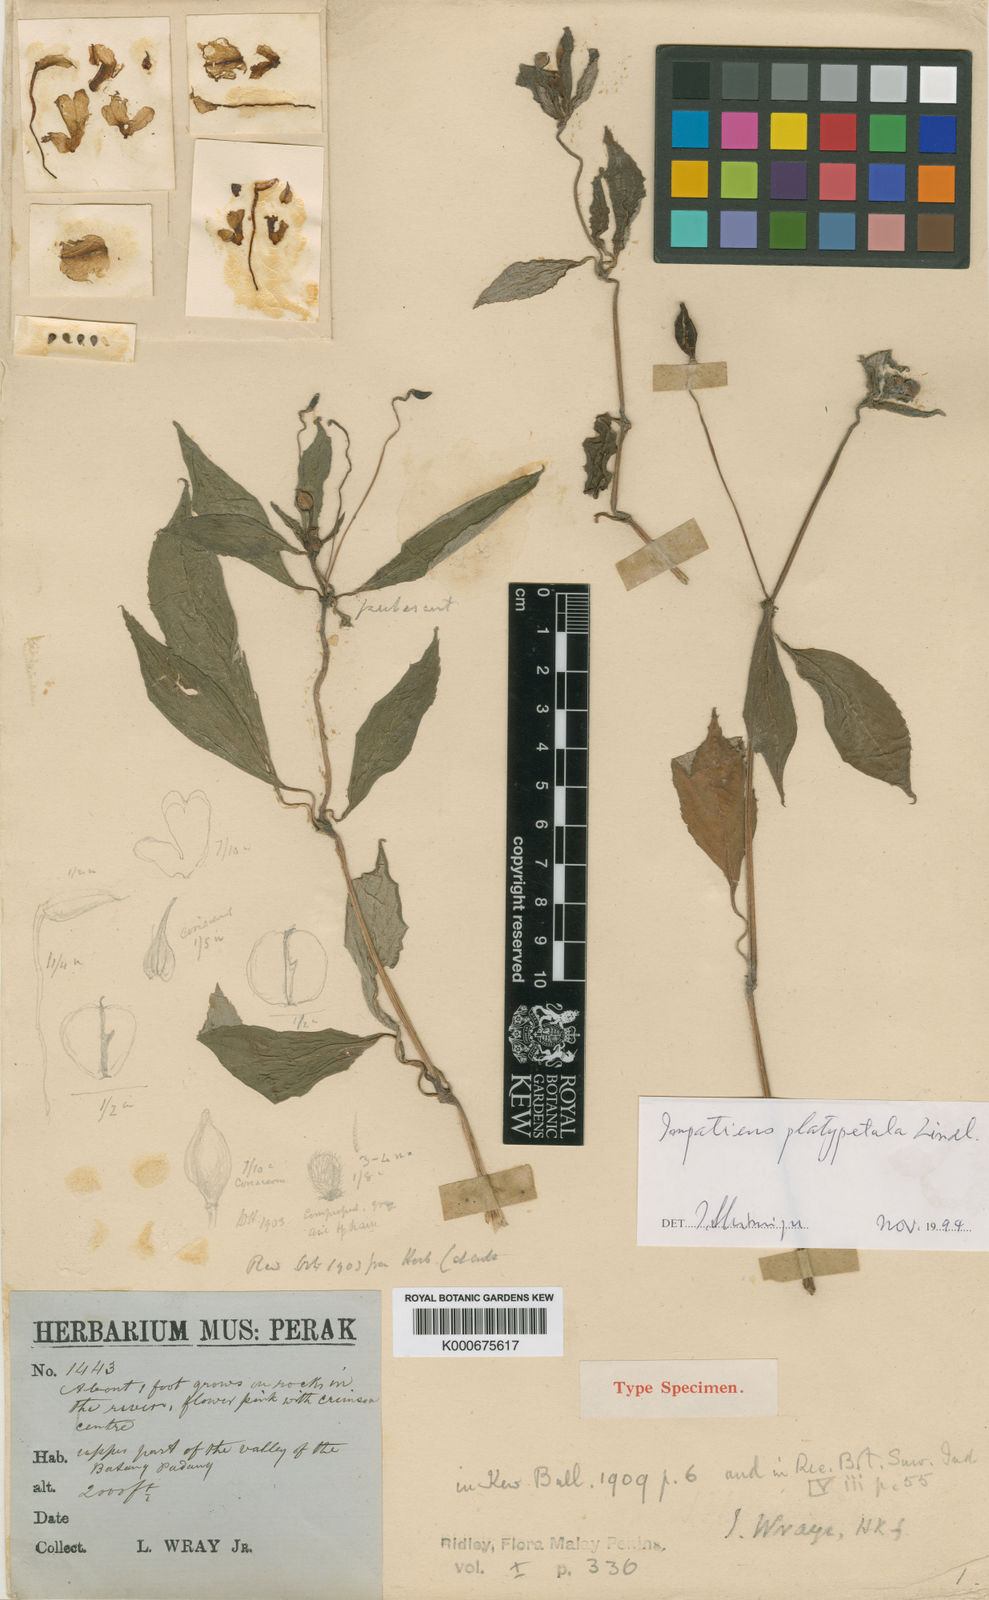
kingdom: Plantae
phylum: Tracheophyta
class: Magnoliopsida
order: Ericales
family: Balsaminaceae
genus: Impatiens
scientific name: Impatiens griffithii
